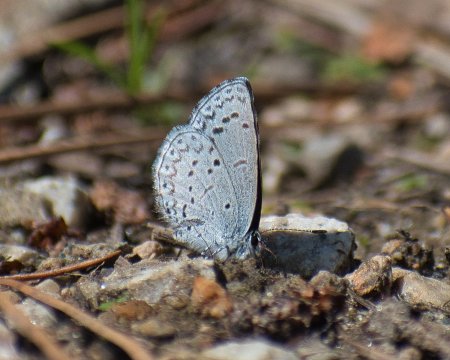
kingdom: Animalia
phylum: Arthropoda
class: Insecta
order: Lepidoptera
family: Lycaenidae
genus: Celastrina
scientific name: Celastrina ladon
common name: Echo Azure
